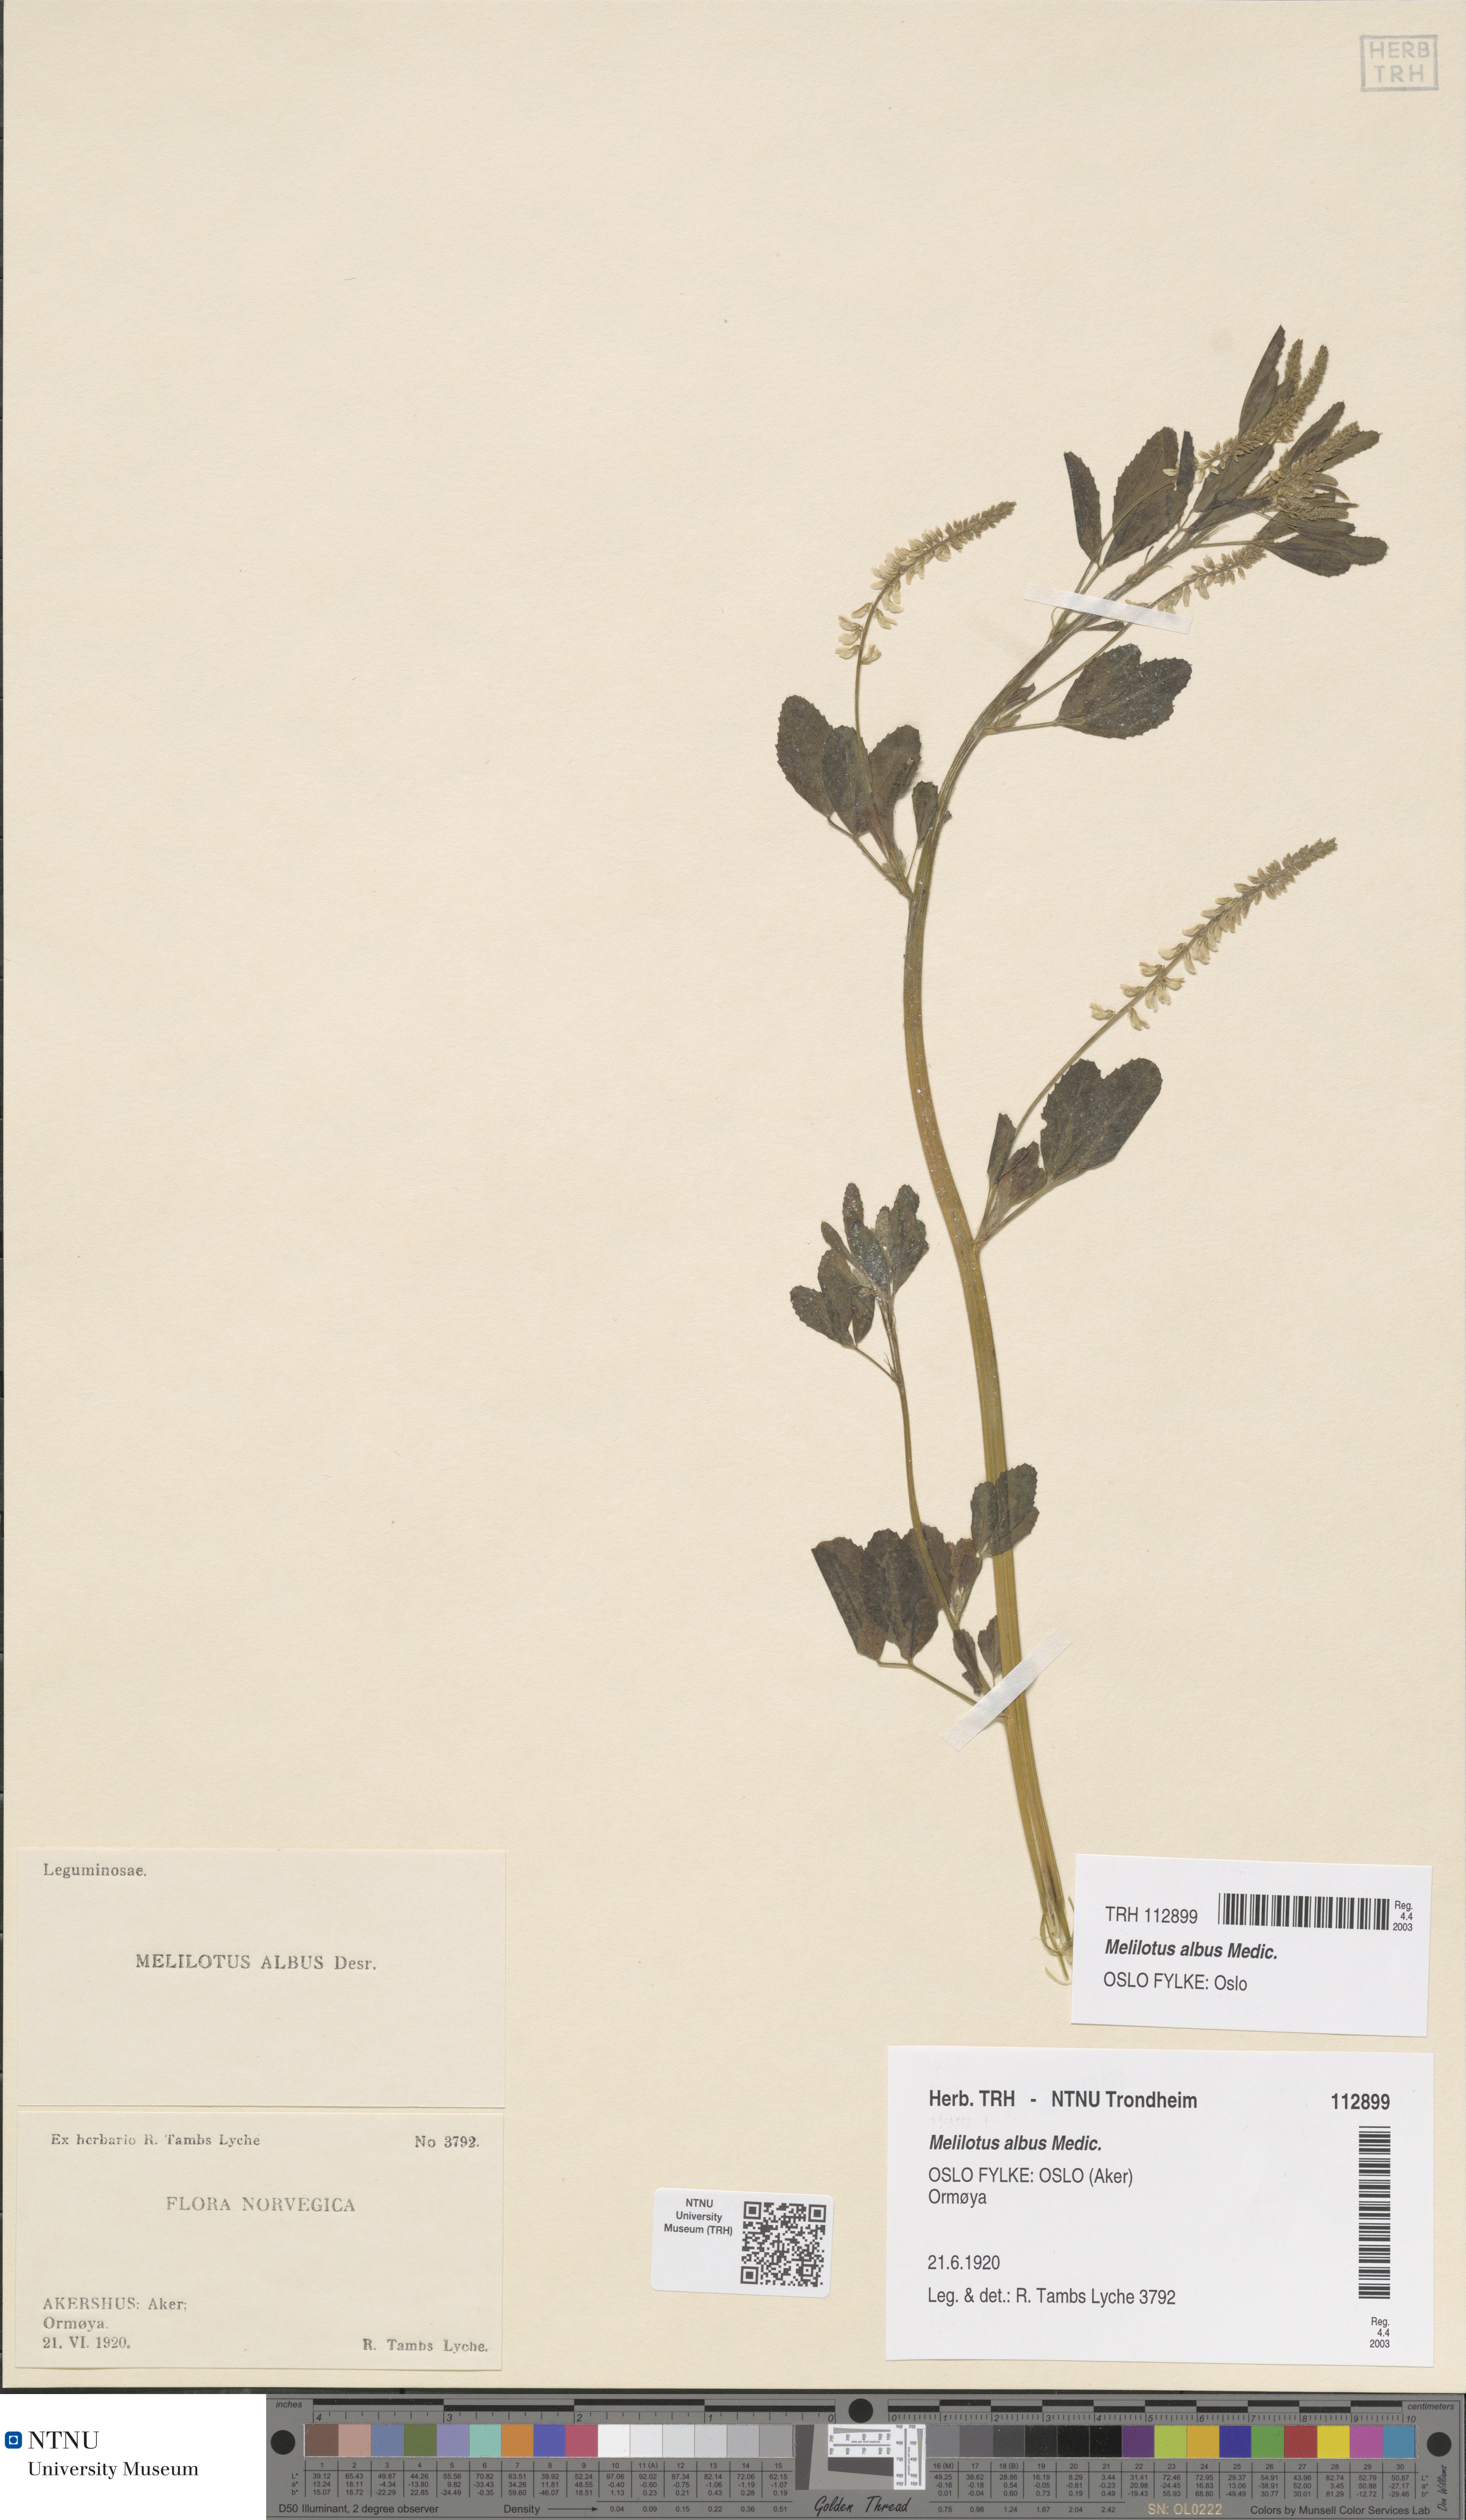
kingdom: Plantae
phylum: Tracheophyta
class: Magnoliopsida
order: Fabales
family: Fabaceae
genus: Melilotus
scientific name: Melilotus albus
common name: White melilot
